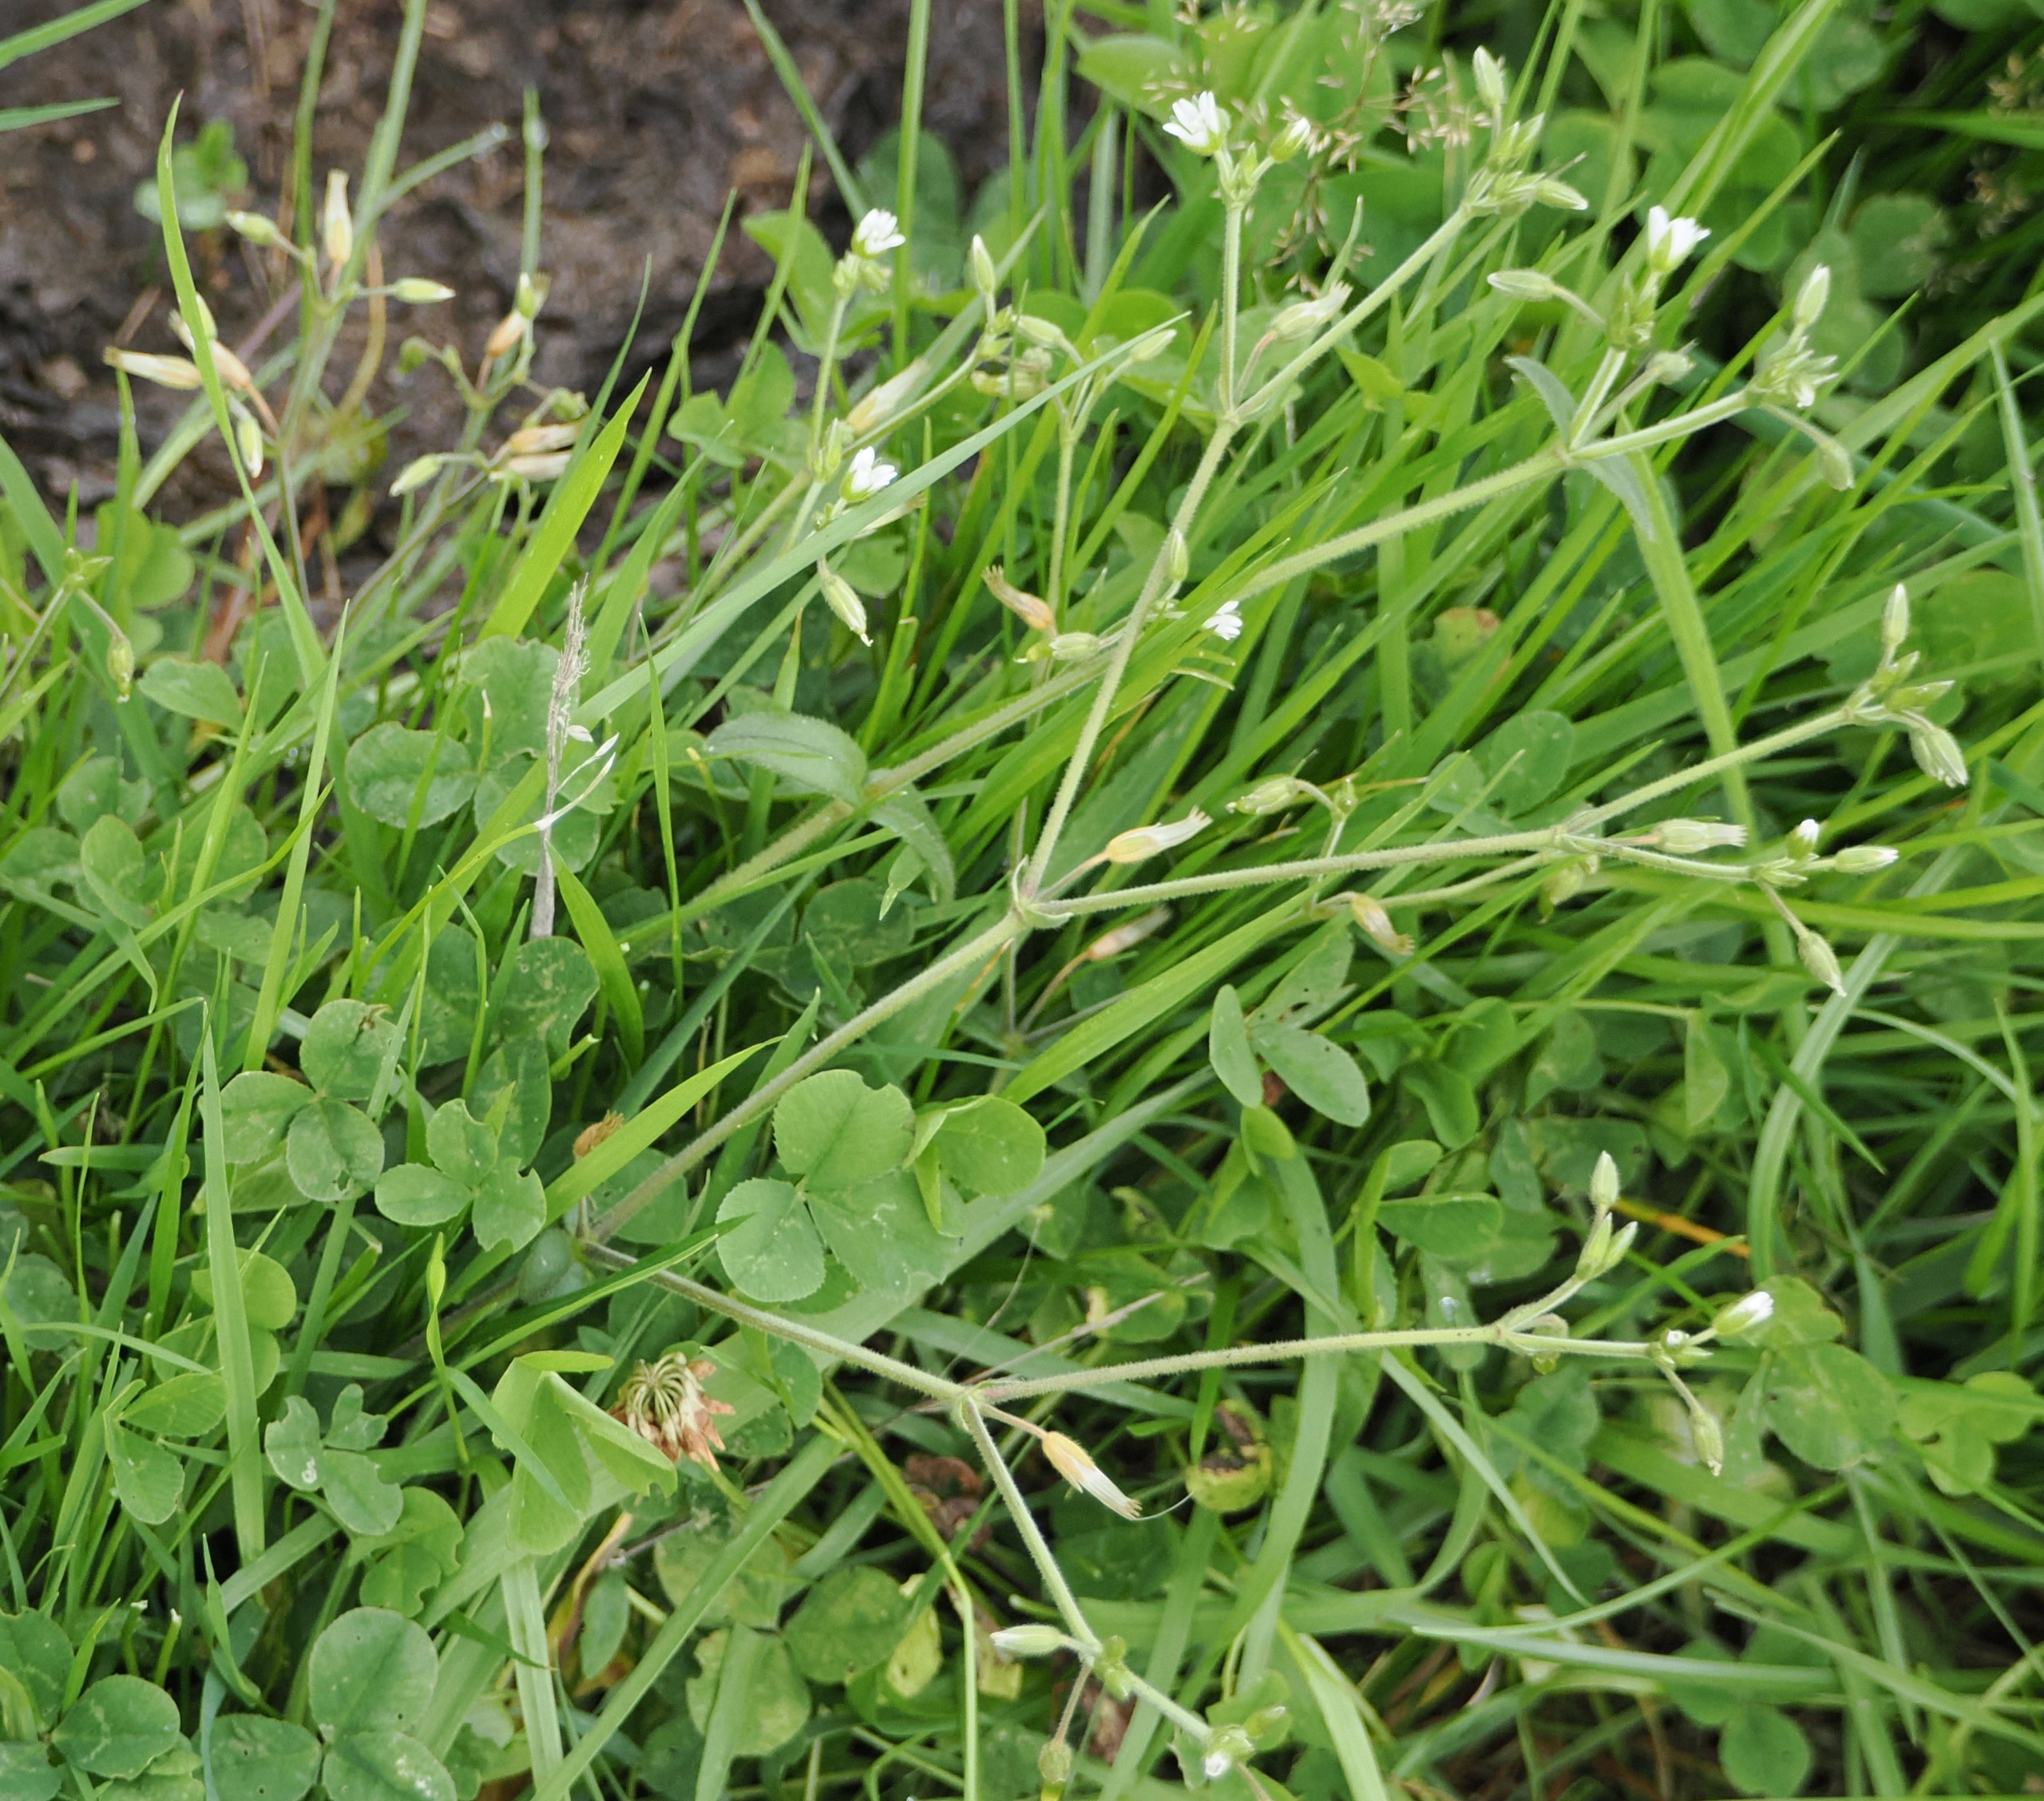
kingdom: Plantae
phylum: Tracheophyta
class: Magnoliopsida
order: Caryophyllales
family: Caryophyllaceae
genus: Cerastium
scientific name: Cerastium fontanum
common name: Almindelig hønsetarm
